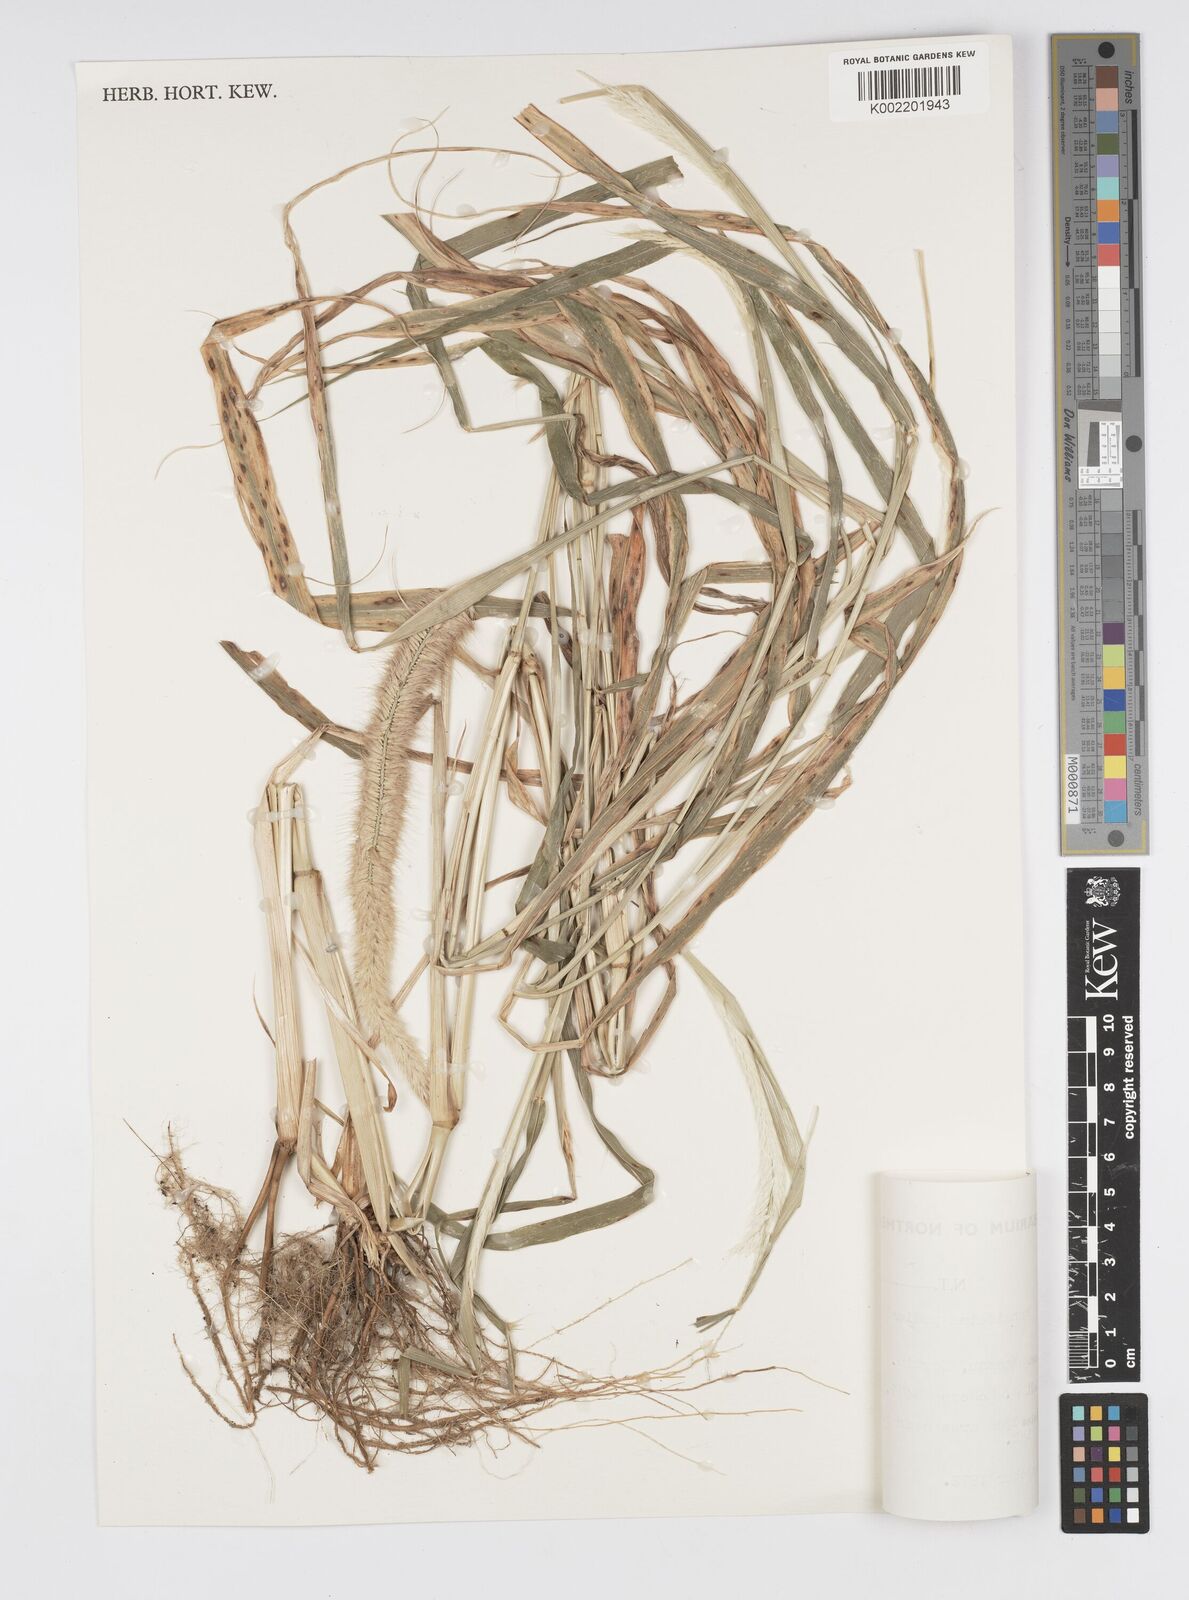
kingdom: Plantae
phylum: Tracheophyta
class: Liliopsida
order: Poales
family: Poaceae
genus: Cenchrus
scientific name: Cenchrus pedicellatus
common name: Hairy fountain grass
